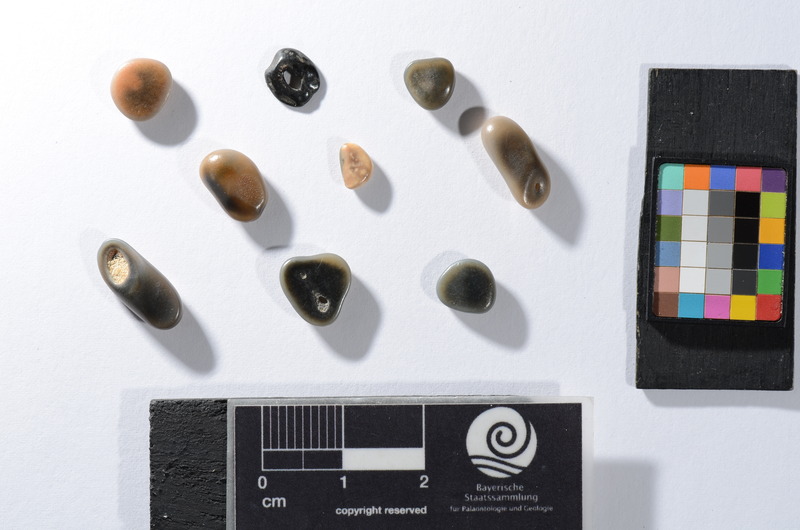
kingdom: Animalia
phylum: Chordata
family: Pycnodontidae
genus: Pycnodus
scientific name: Pycnodus toliapicus
